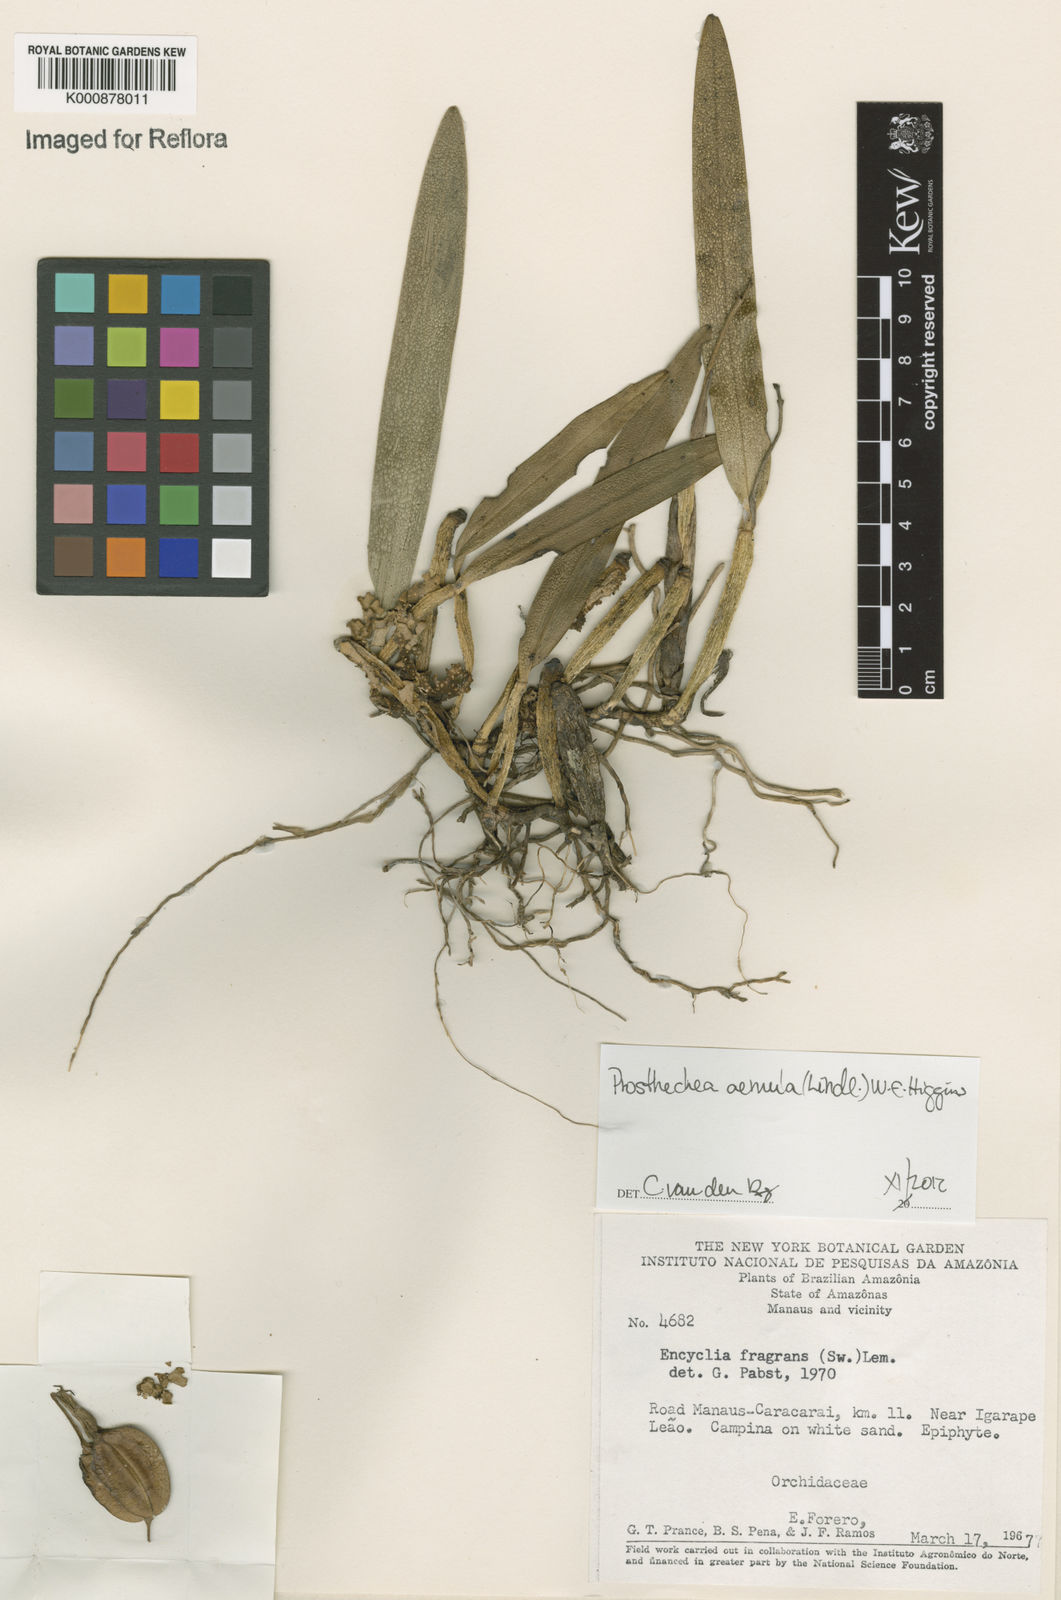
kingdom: Plantae
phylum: Tracheophyta
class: Liliopsida
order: Asparagales
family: Orchidaceae
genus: Prosthechea
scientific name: Prosthechea aemula
